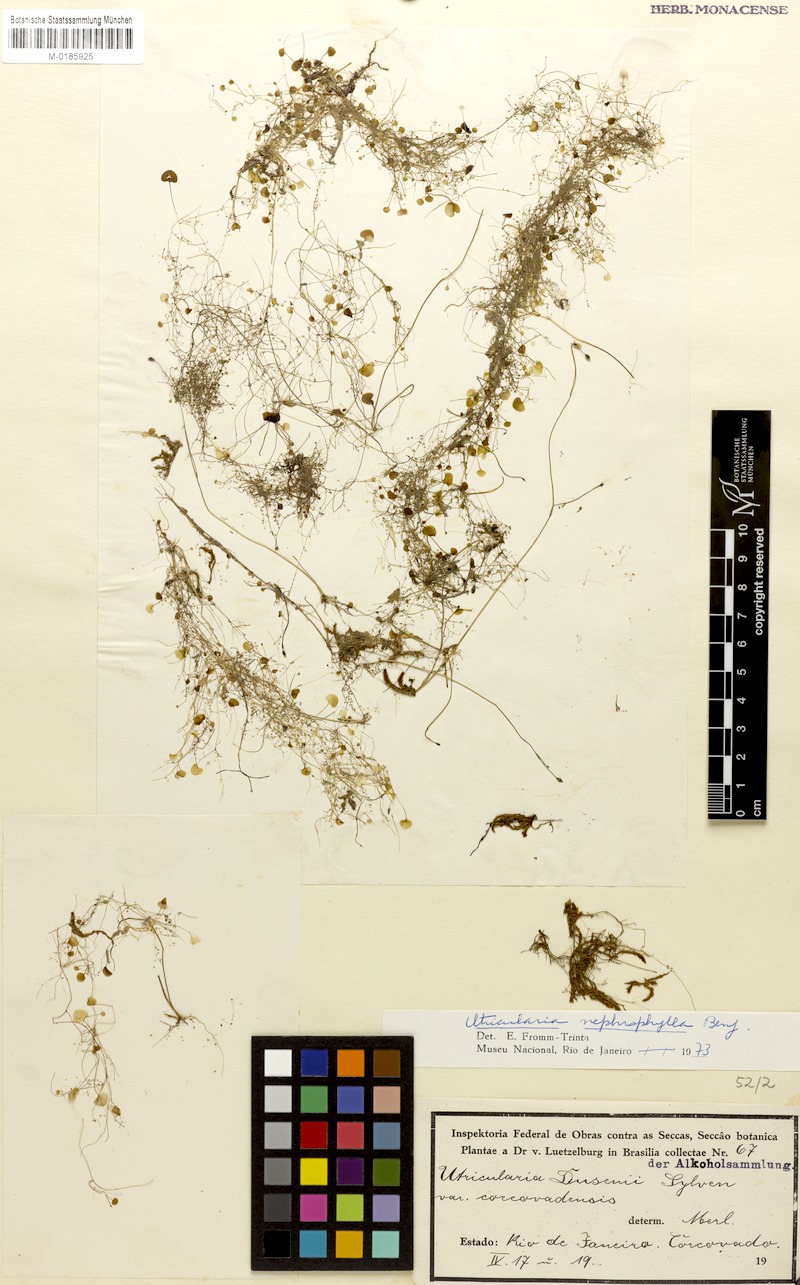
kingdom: Plantae
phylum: Tracheophyta
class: Magnoliopsida
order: Lamiales
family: Lentibulariaceae
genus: Utricularia
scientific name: Utricularia nephrophylla
